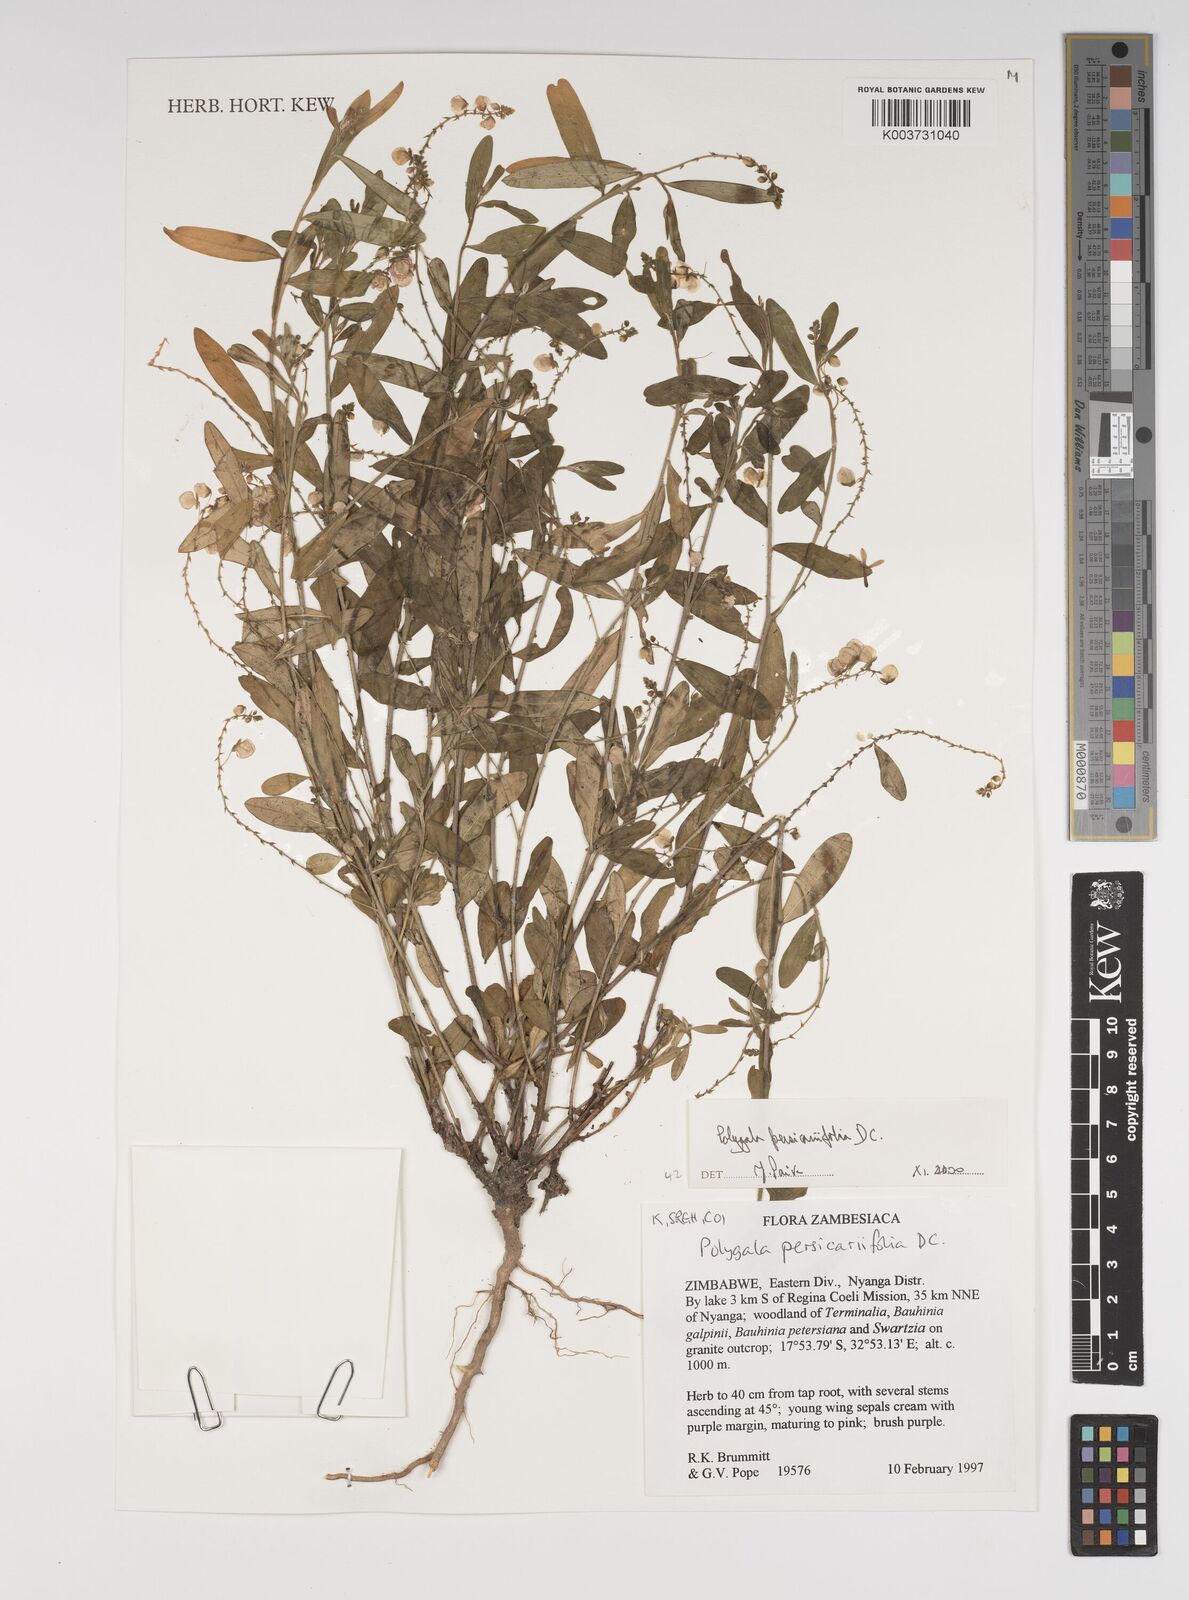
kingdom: Plantae
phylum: Tracheophyta
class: Magnoliopsida
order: Fabales
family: Polygalaceae
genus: Polygala
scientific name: Polygala persicariifolia
